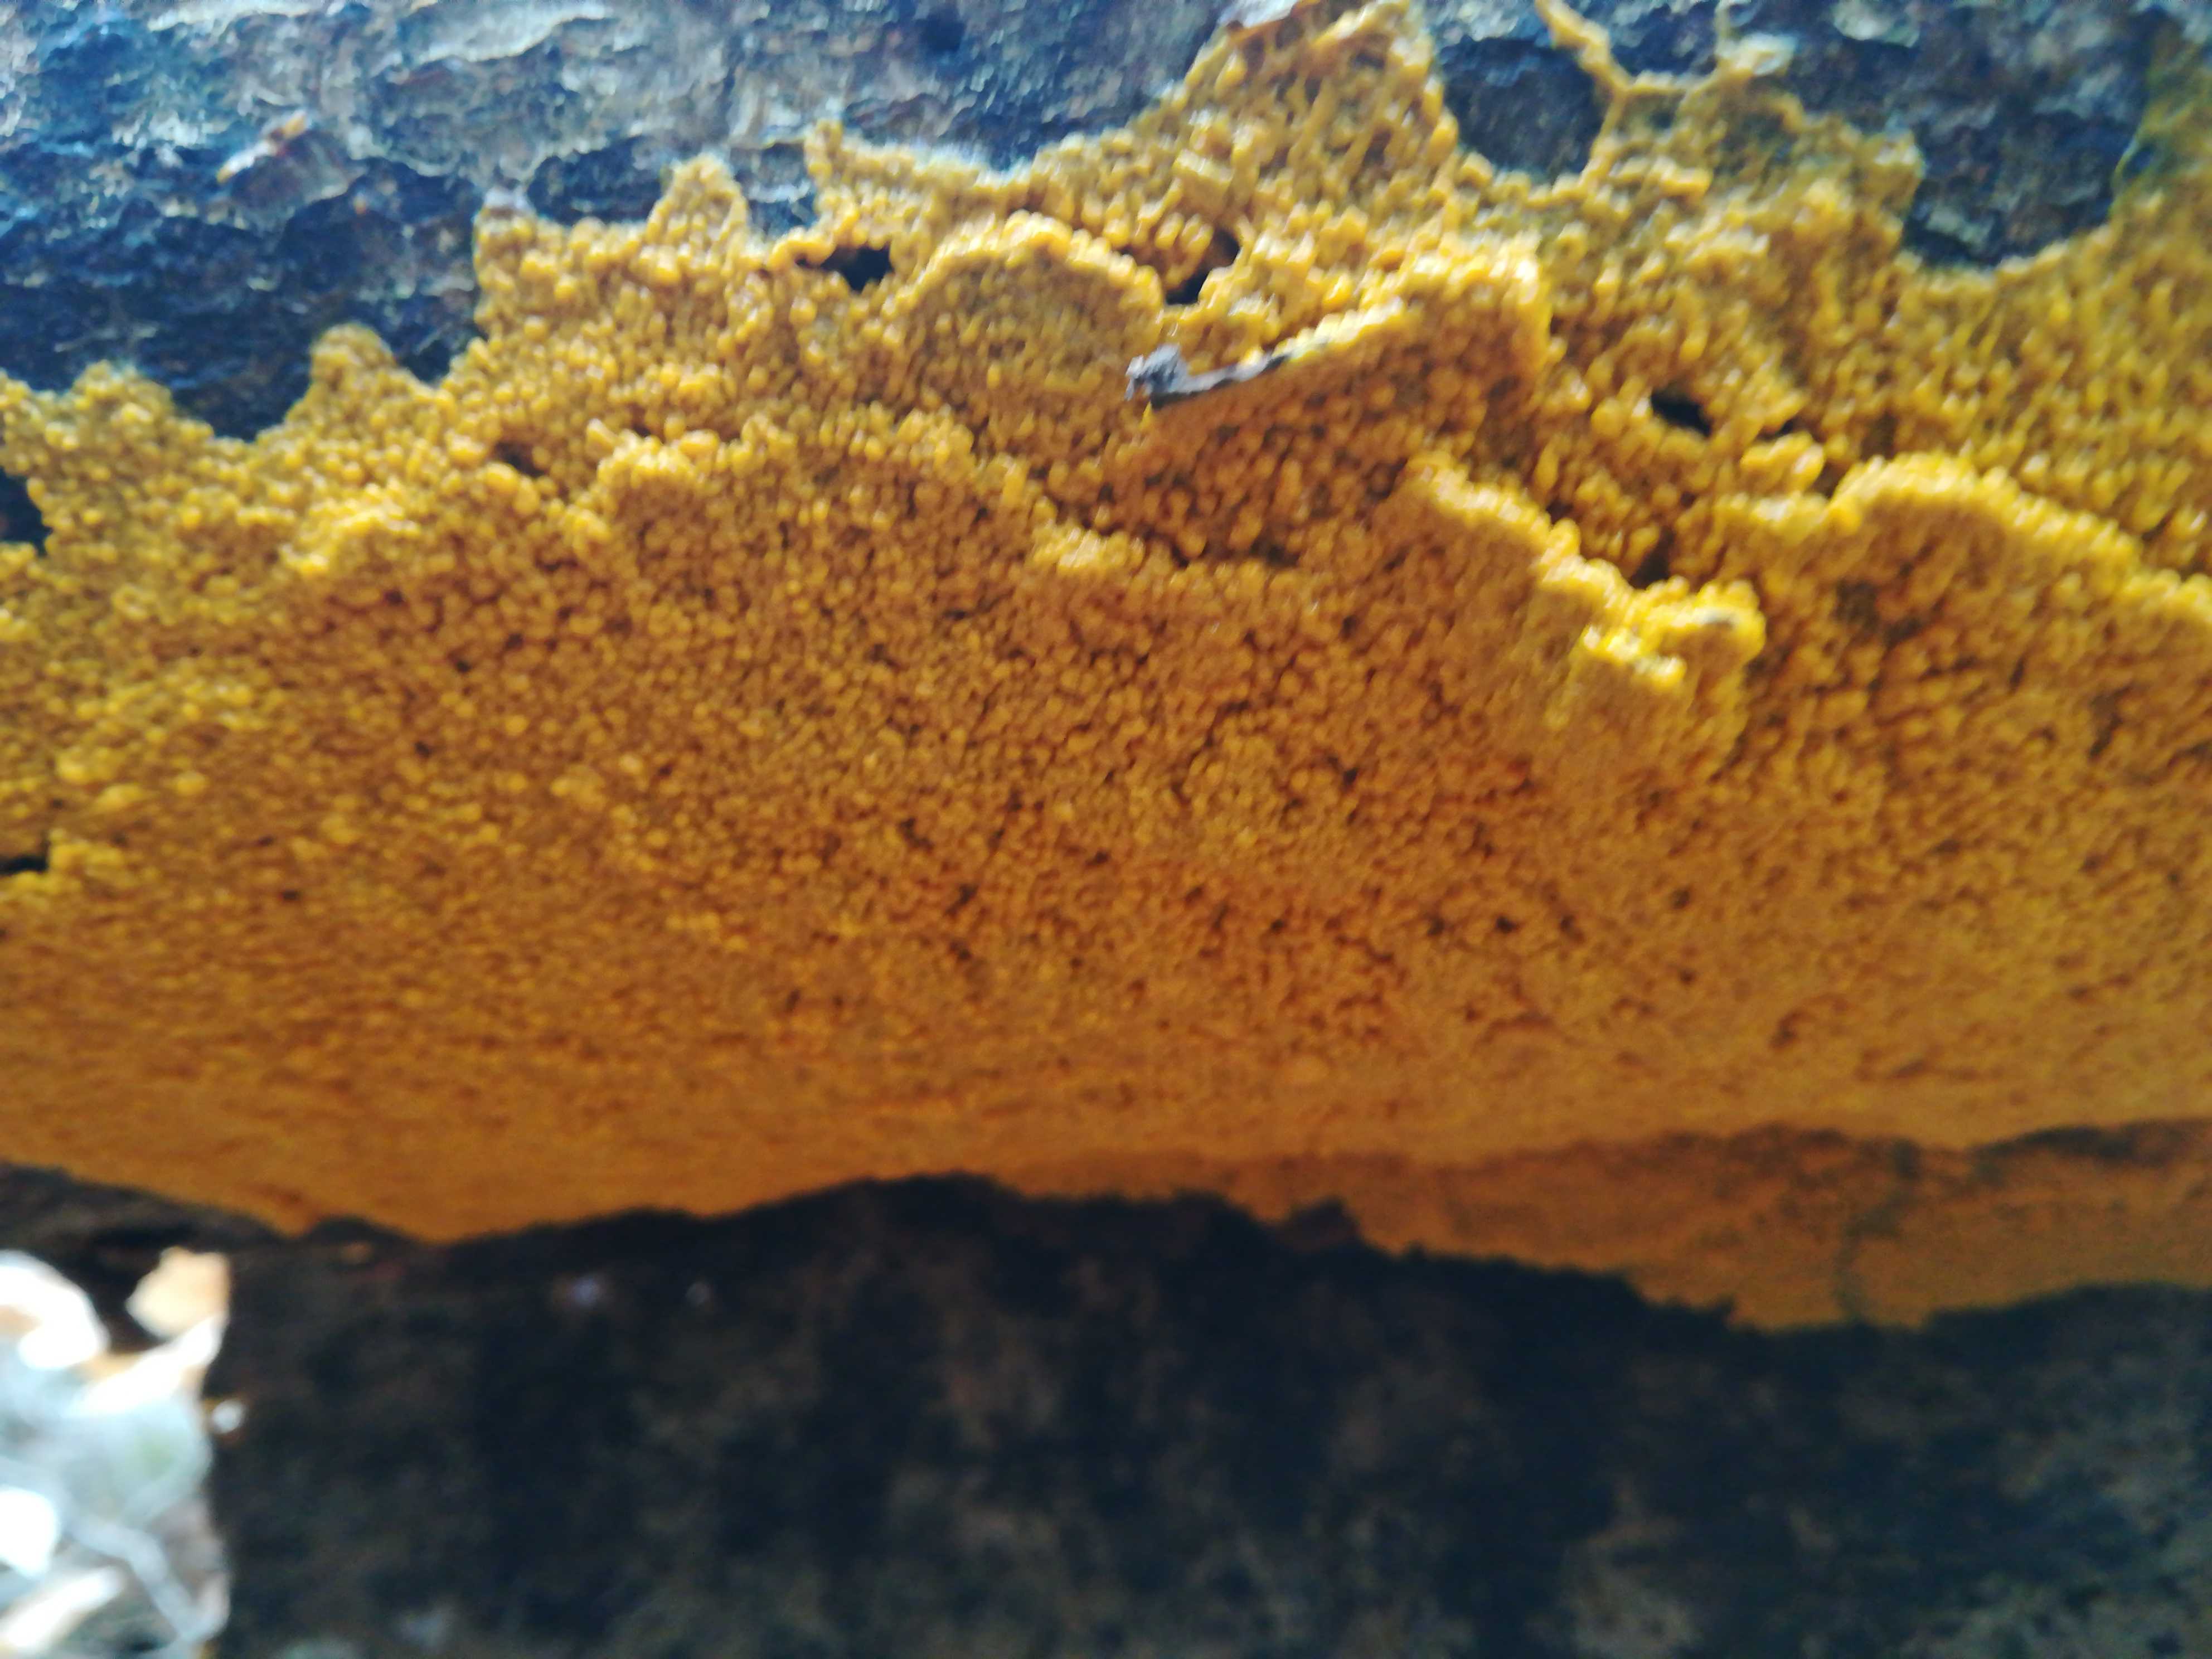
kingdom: Protozoa
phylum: Mycetozoa
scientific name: Mycetozoa
